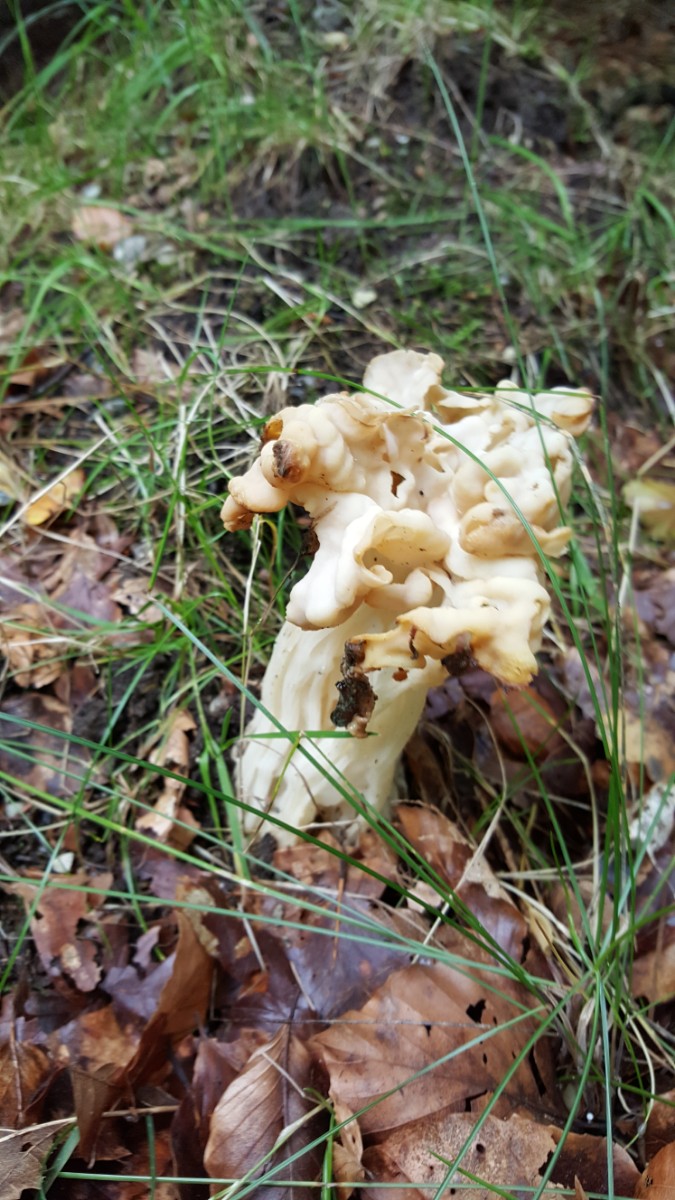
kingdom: Fungi
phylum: Ascomycota
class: Pezizomycetes
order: Pezizales
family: Helvellaceae
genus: Helvella
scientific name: Helvella crispa
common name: kruset foldhat
